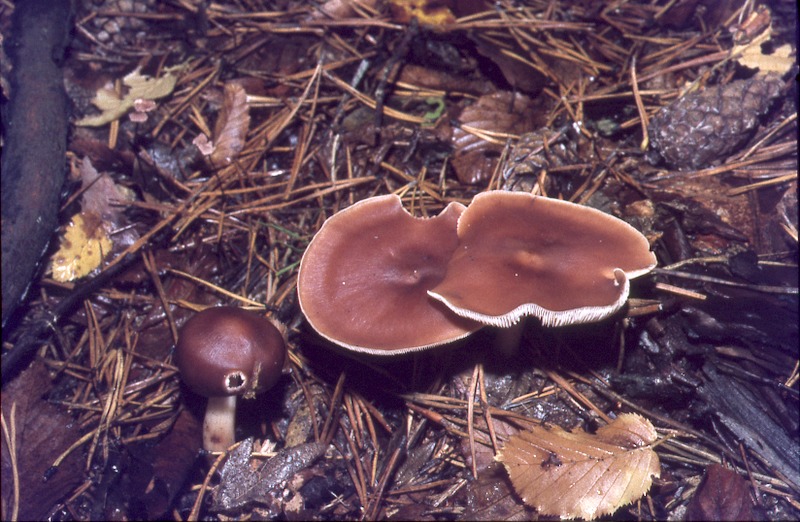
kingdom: Fungi
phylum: Basidiomycota
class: Agaricomycetes
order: Agaricales
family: Omphalotaceae
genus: Rhodocollybia
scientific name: Rhodocollybia prolixa
